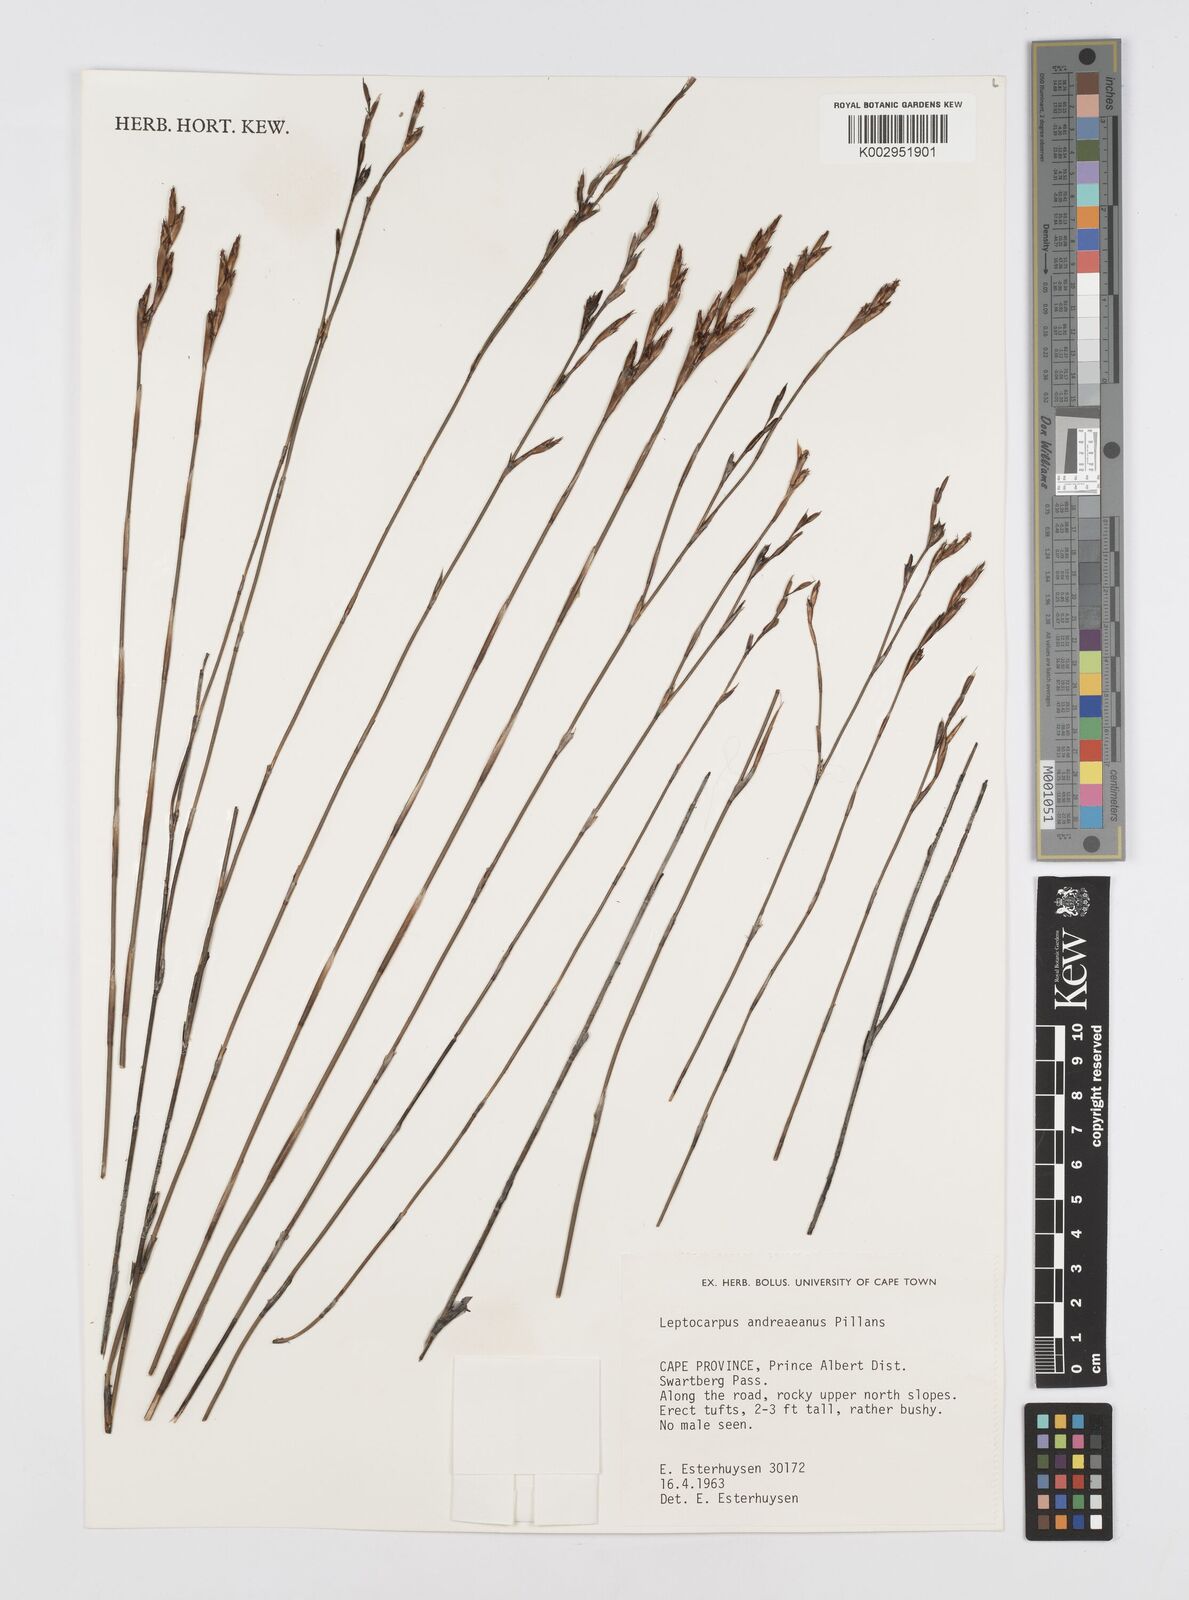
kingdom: Plantae
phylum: Tracheophyta
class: Liliopsida
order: Poales
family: Restionaceae
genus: Restio
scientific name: Restio andreaeanus
